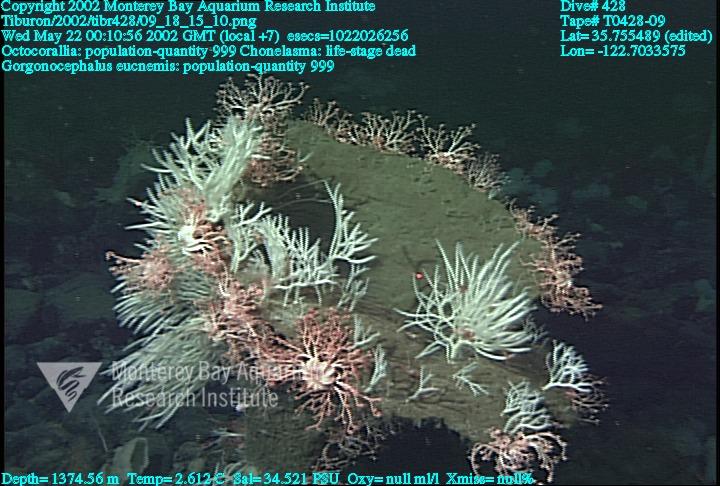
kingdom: Animalia
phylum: Porifera
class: Hexactinellida
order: Sceptrulophora
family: Euretidae
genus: Chonelasma
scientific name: Chonelasma
